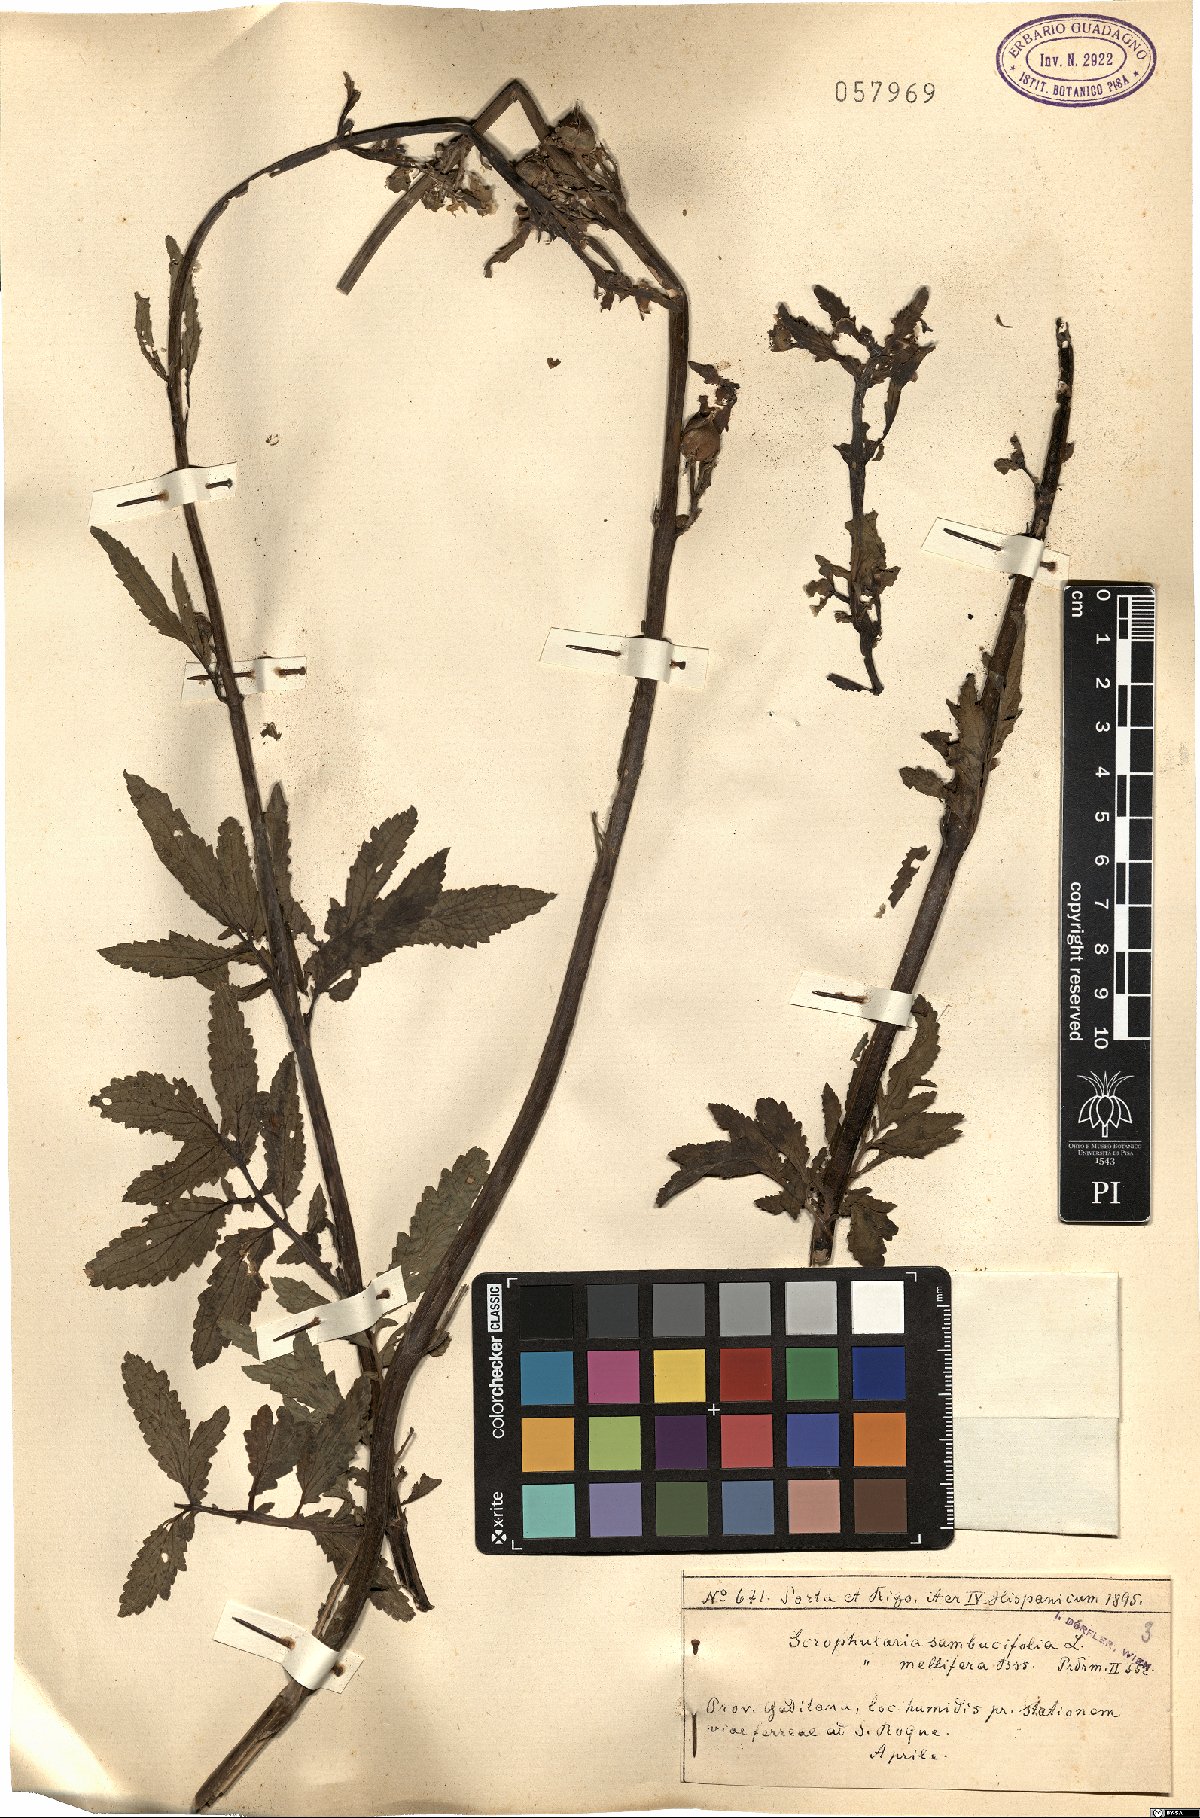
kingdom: Plantae
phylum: Tracheophyta
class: Magnoliopsida
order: Lamiales
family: Scrophulariaceae
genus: Scrophularia
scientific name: Scrophularia sambucifolia
